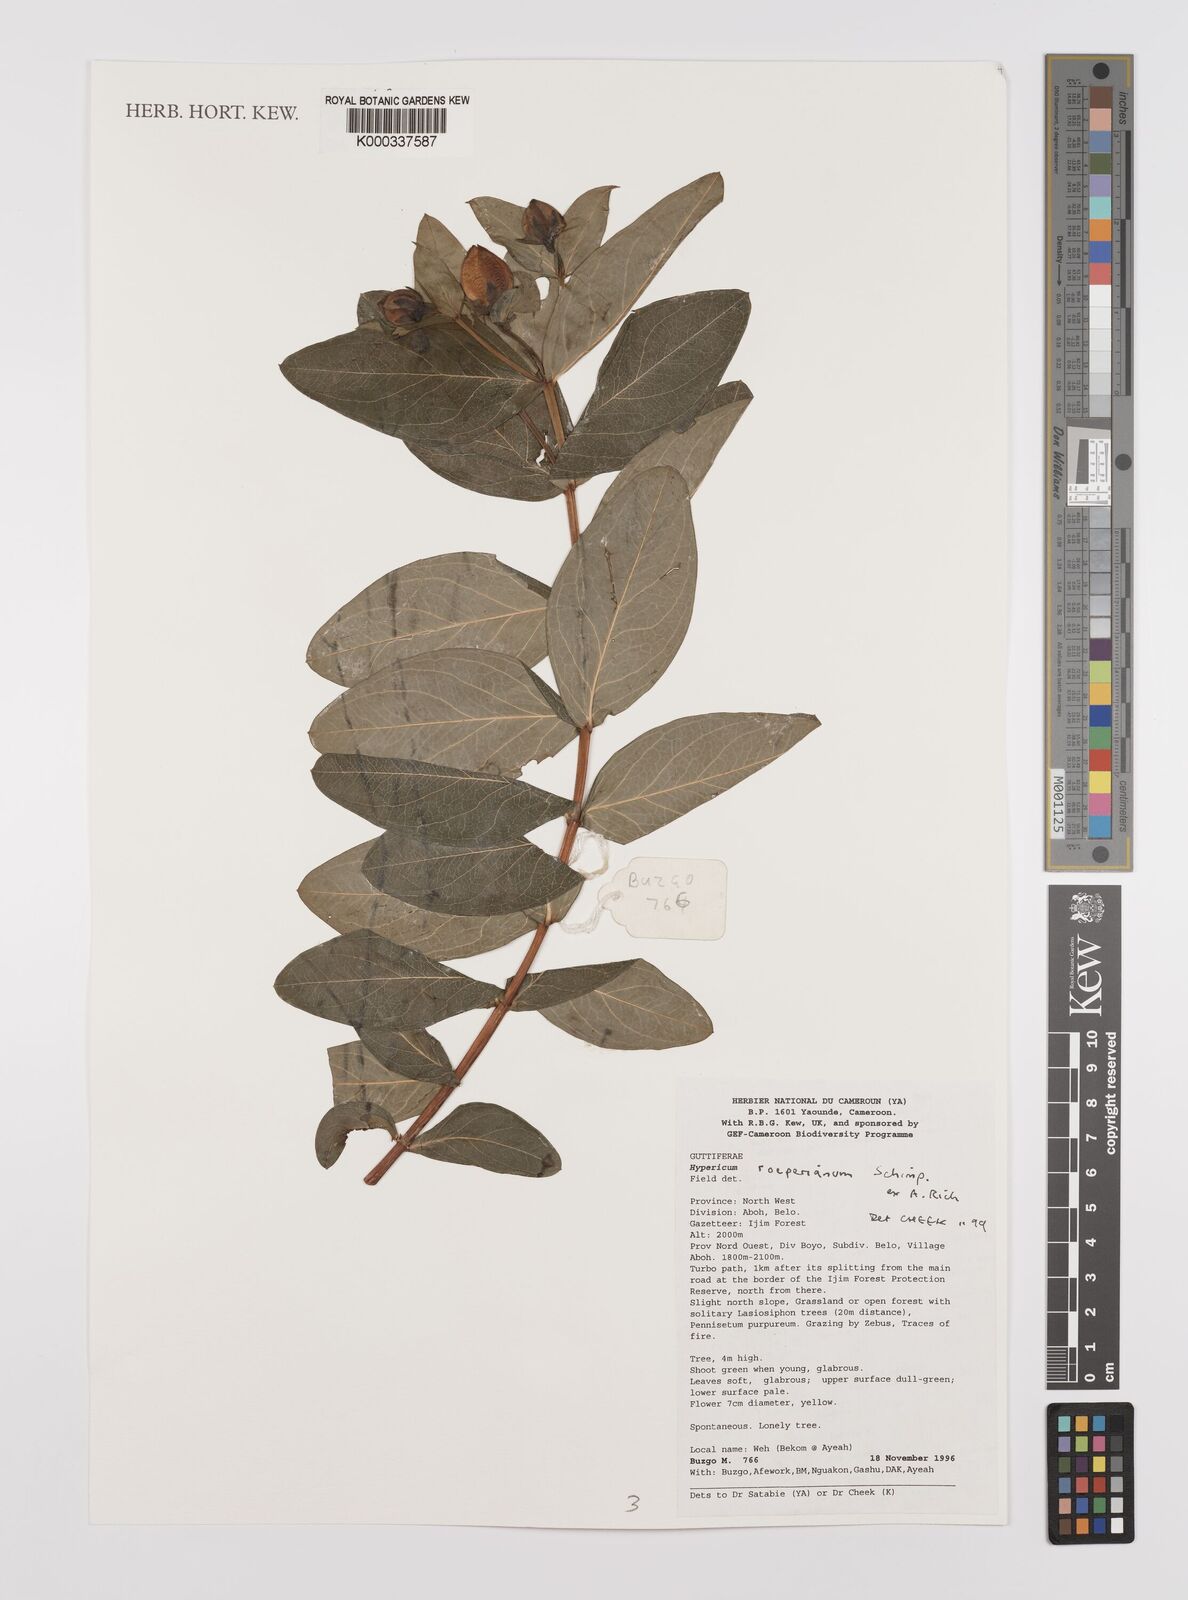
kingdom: Plantae
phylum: Tracheophyta
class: Magnoliopsida
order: Malpighiales
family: Hypericaceae
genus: Hypericum
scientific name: Hypericum
